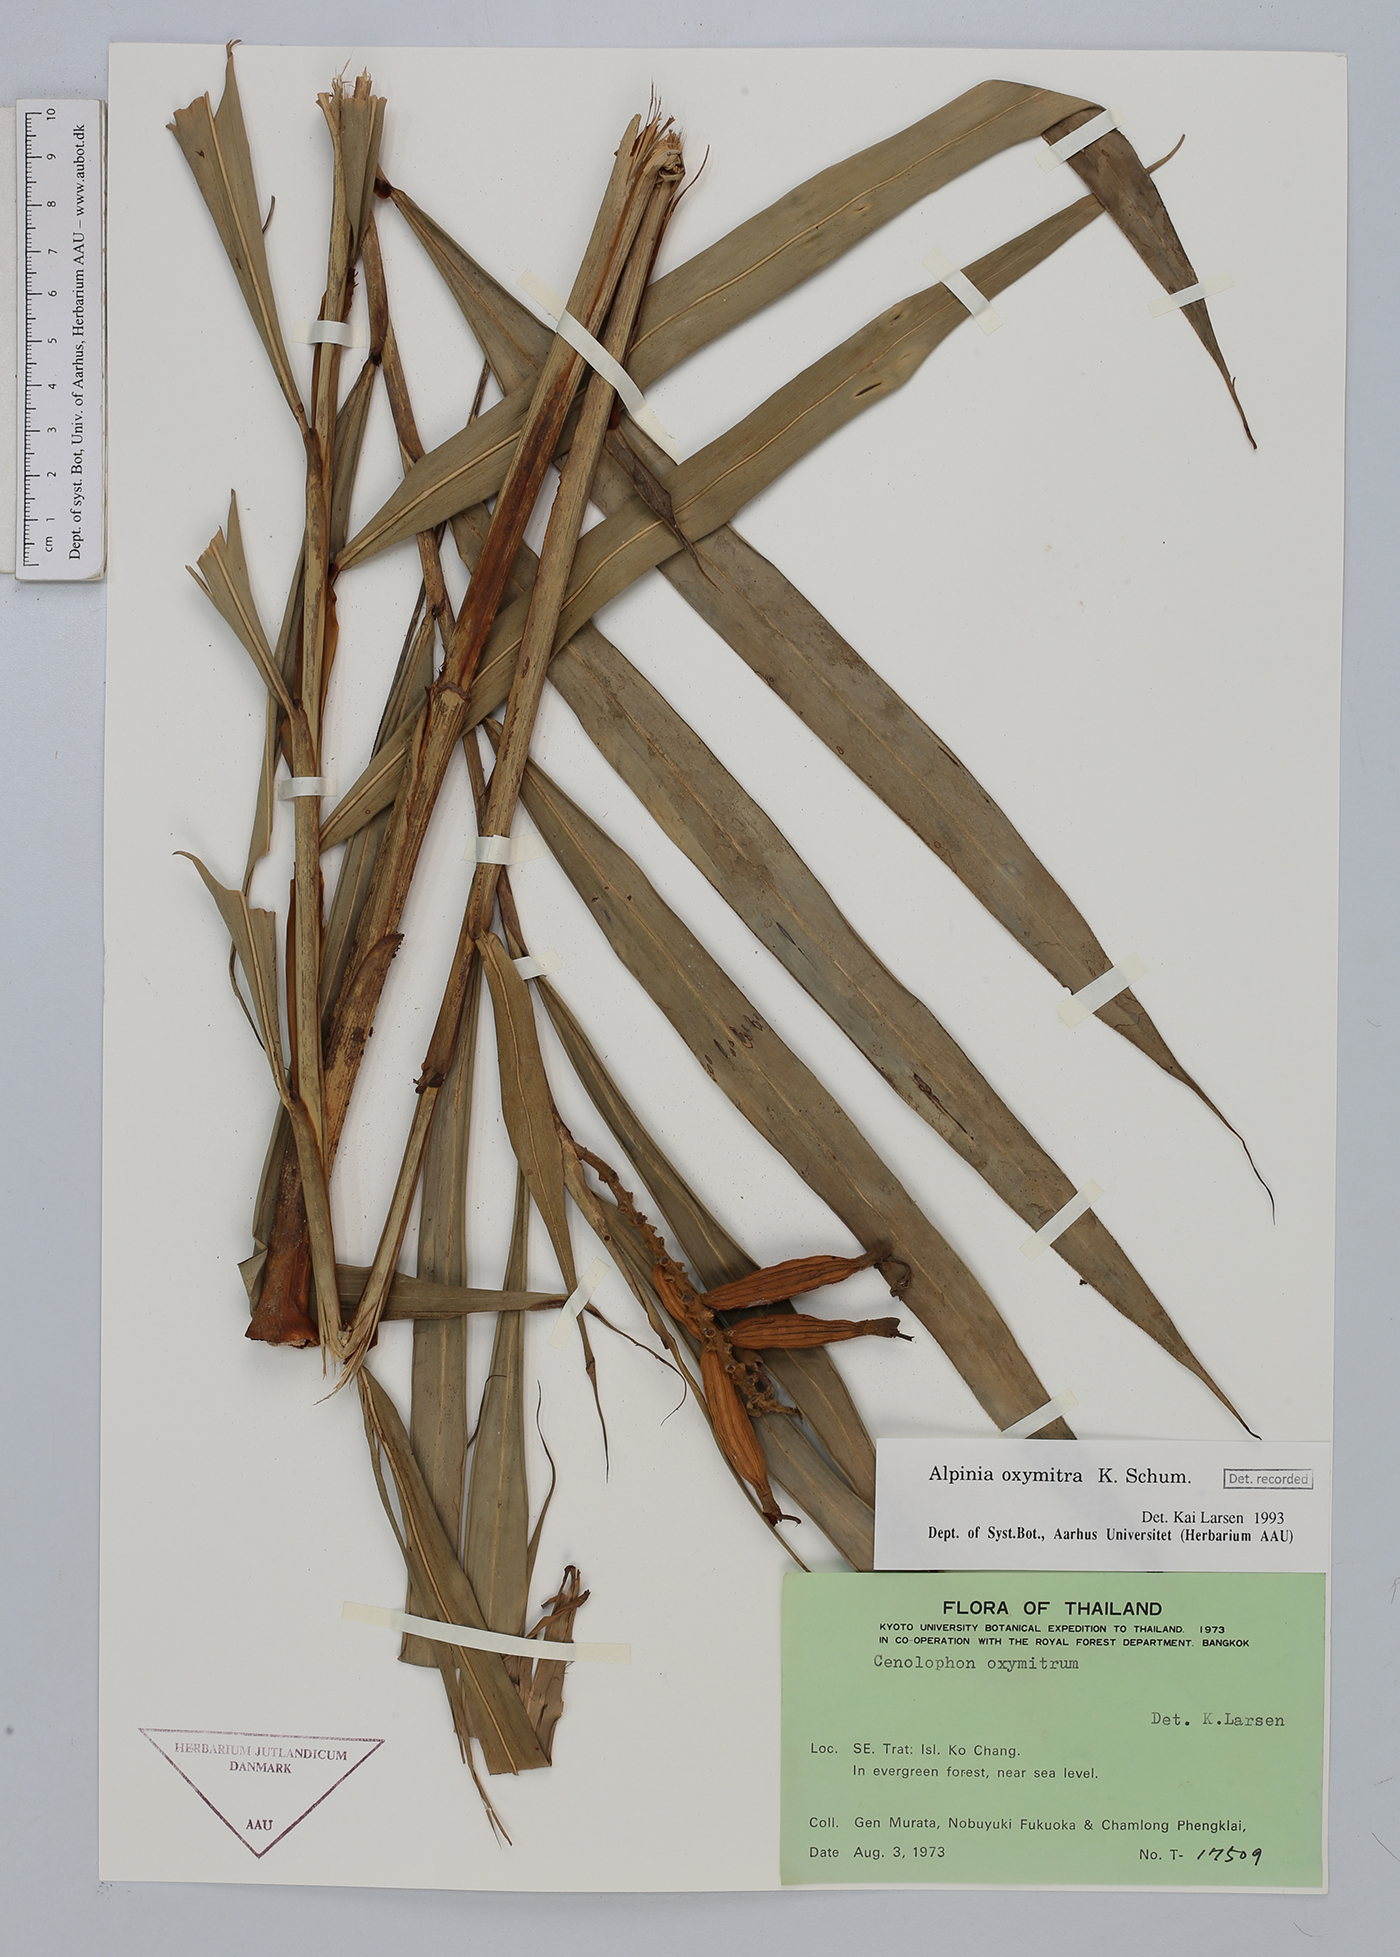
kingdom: Plantae
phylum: Tracheophyta
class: Liliopsida
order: Zingiberales
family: Zingiberaceae
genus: Alpinia
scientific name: Alpinia oxymitra
